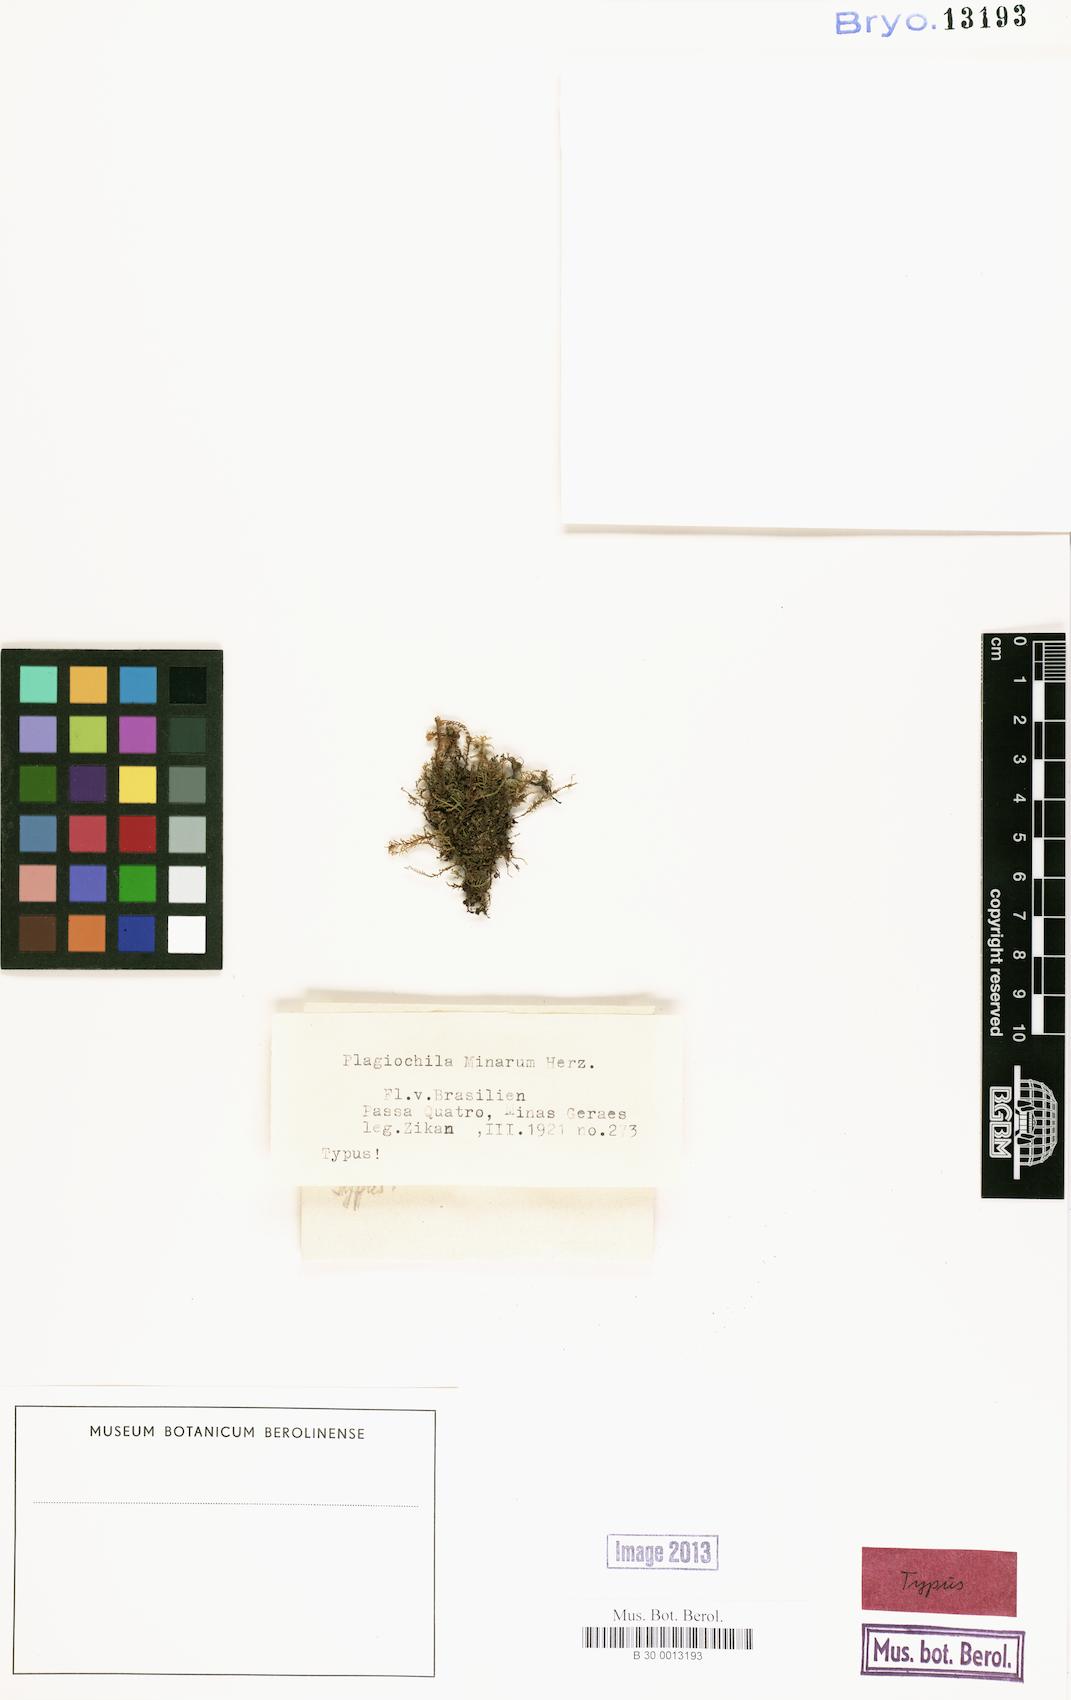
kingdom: Plantae
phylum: Marchantiophyta
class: Jungermanniopsida
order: Jungermanniales
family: Plagiochilaceae
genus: Plagiochila
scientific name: Plagiochila macrostachya
